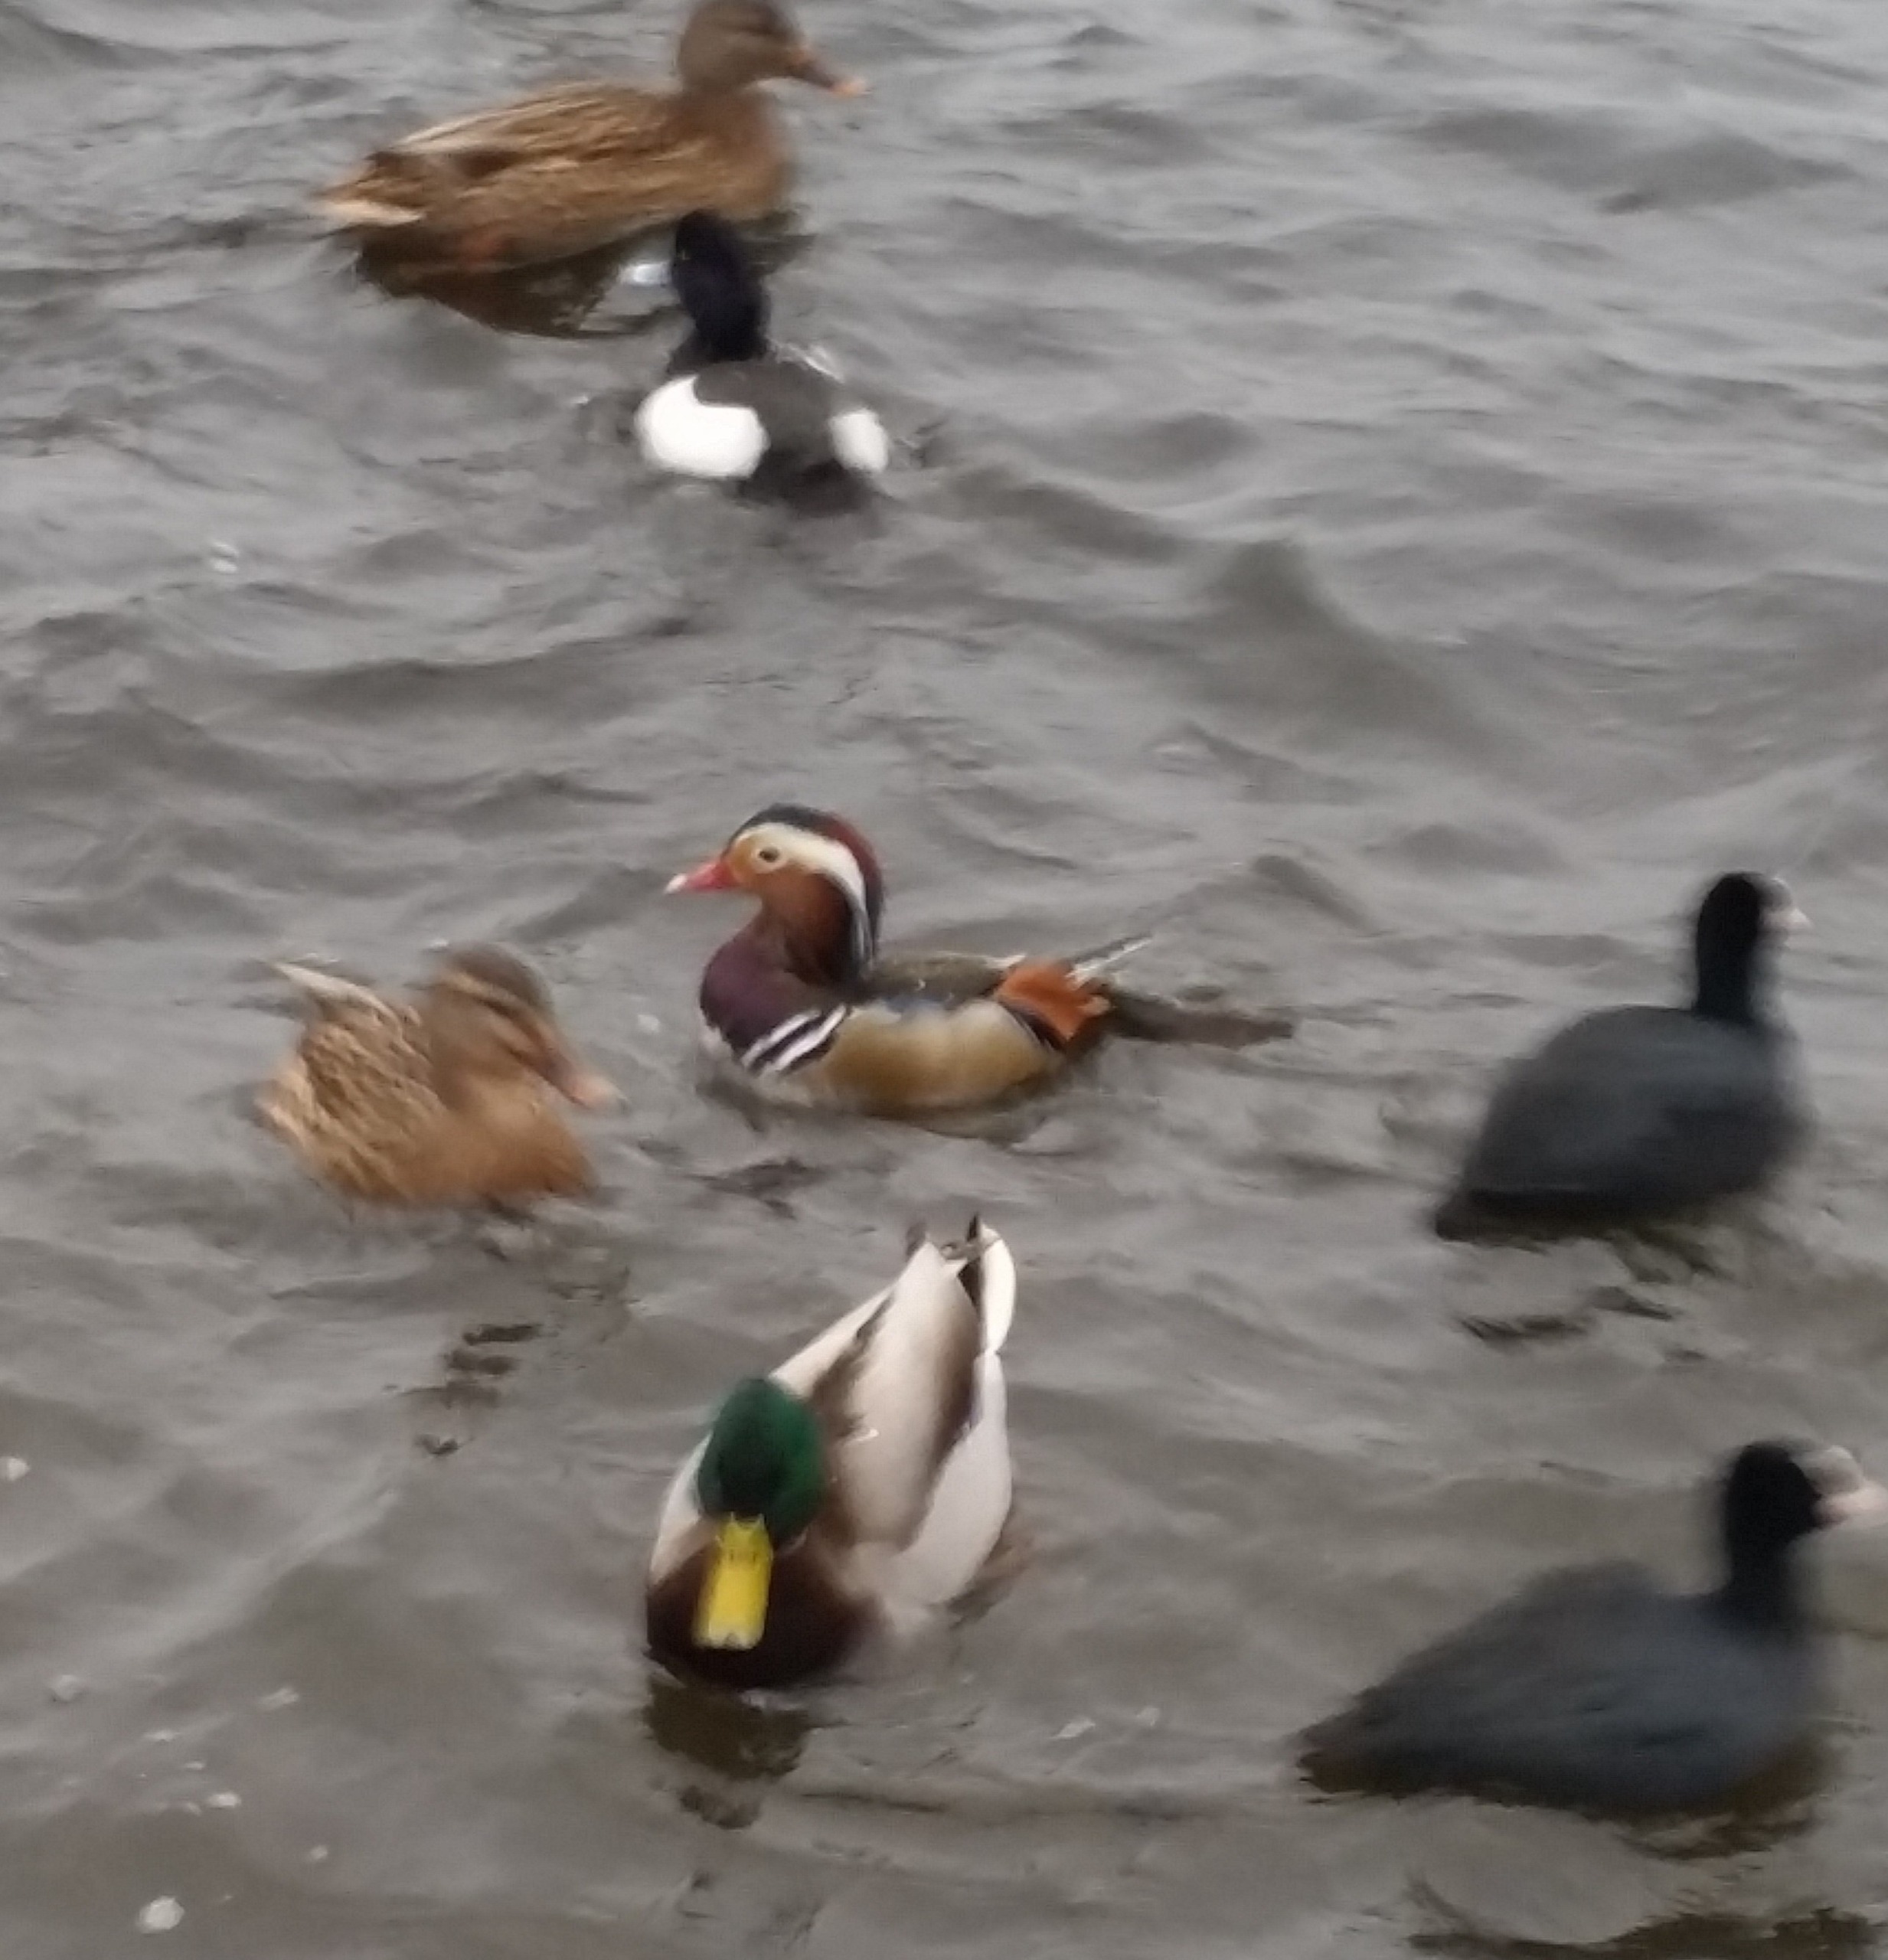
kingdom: Animalia
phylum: Chordata
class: Aves
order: Anseriformes
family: Anatidae
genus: Aix
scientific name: Aix galericulata
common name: Mandarinand
